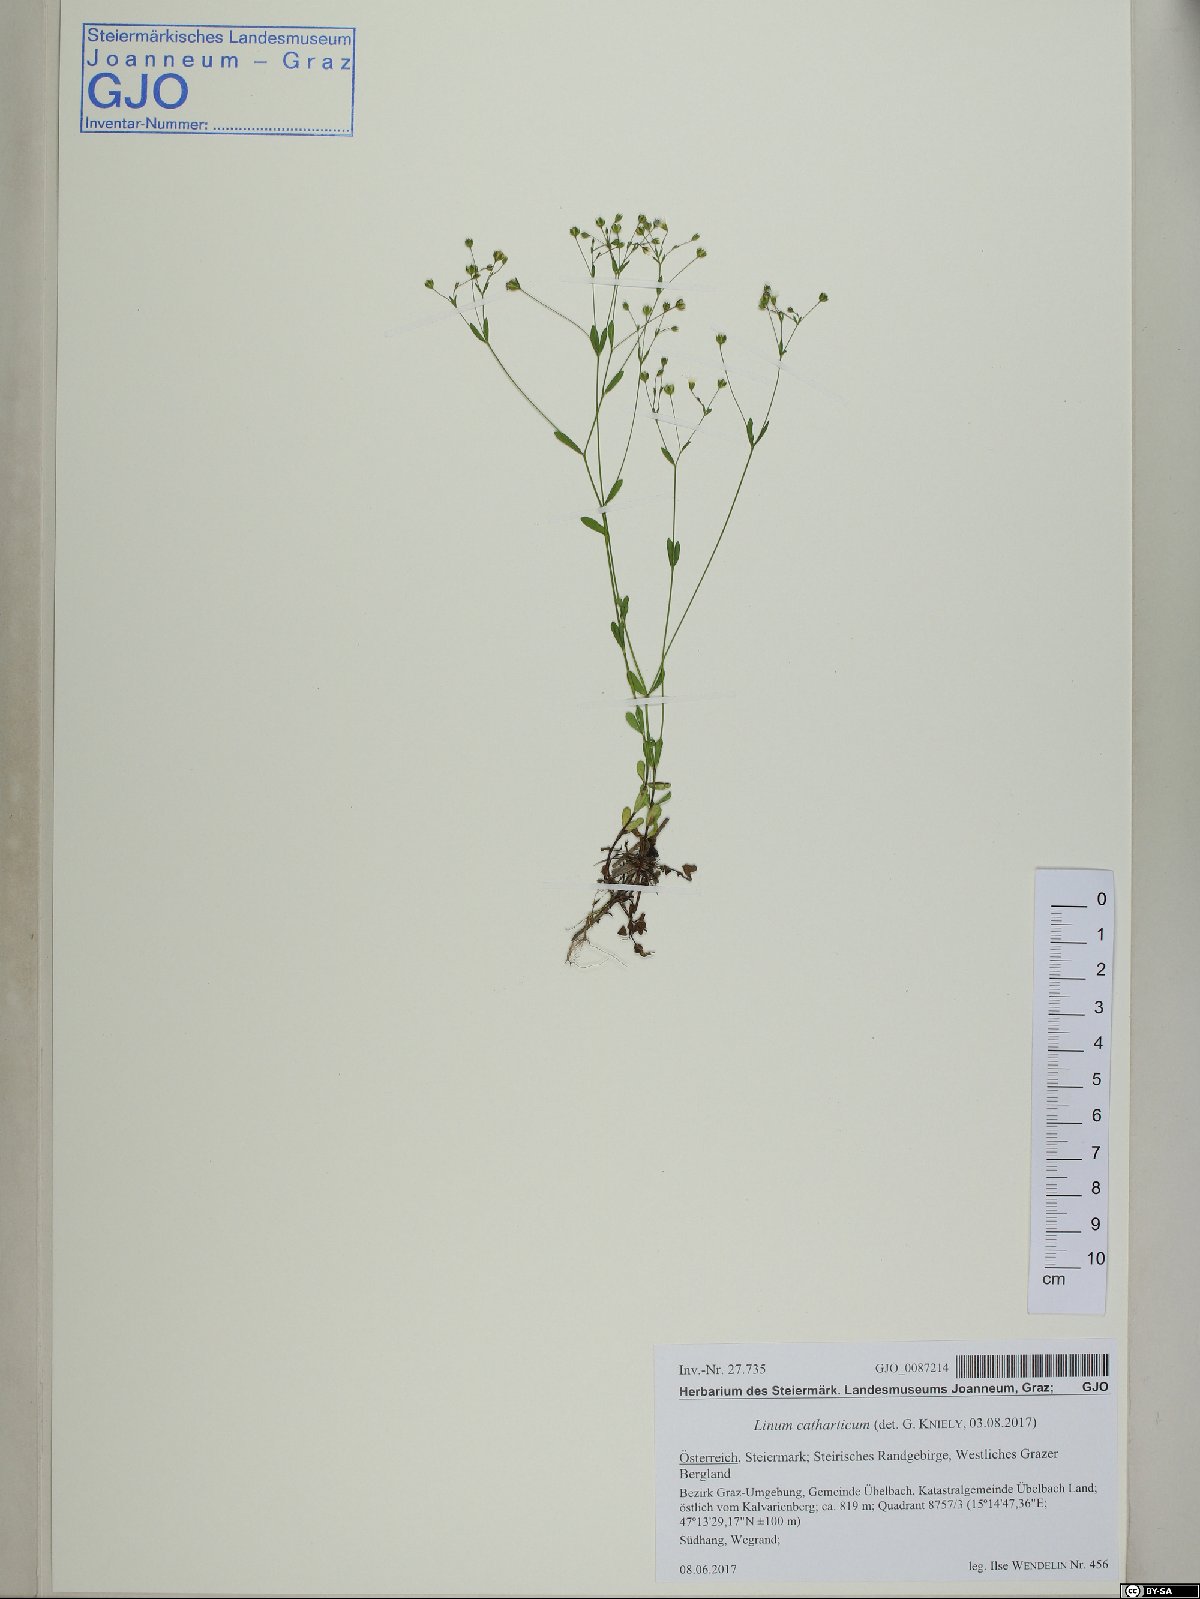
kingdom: Plantae
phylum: Tracheophyta
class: Magnoliopsida
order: Malpighiales
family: Linaceae
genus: Linum
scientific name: Linum catharticum
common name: Fairy flax
